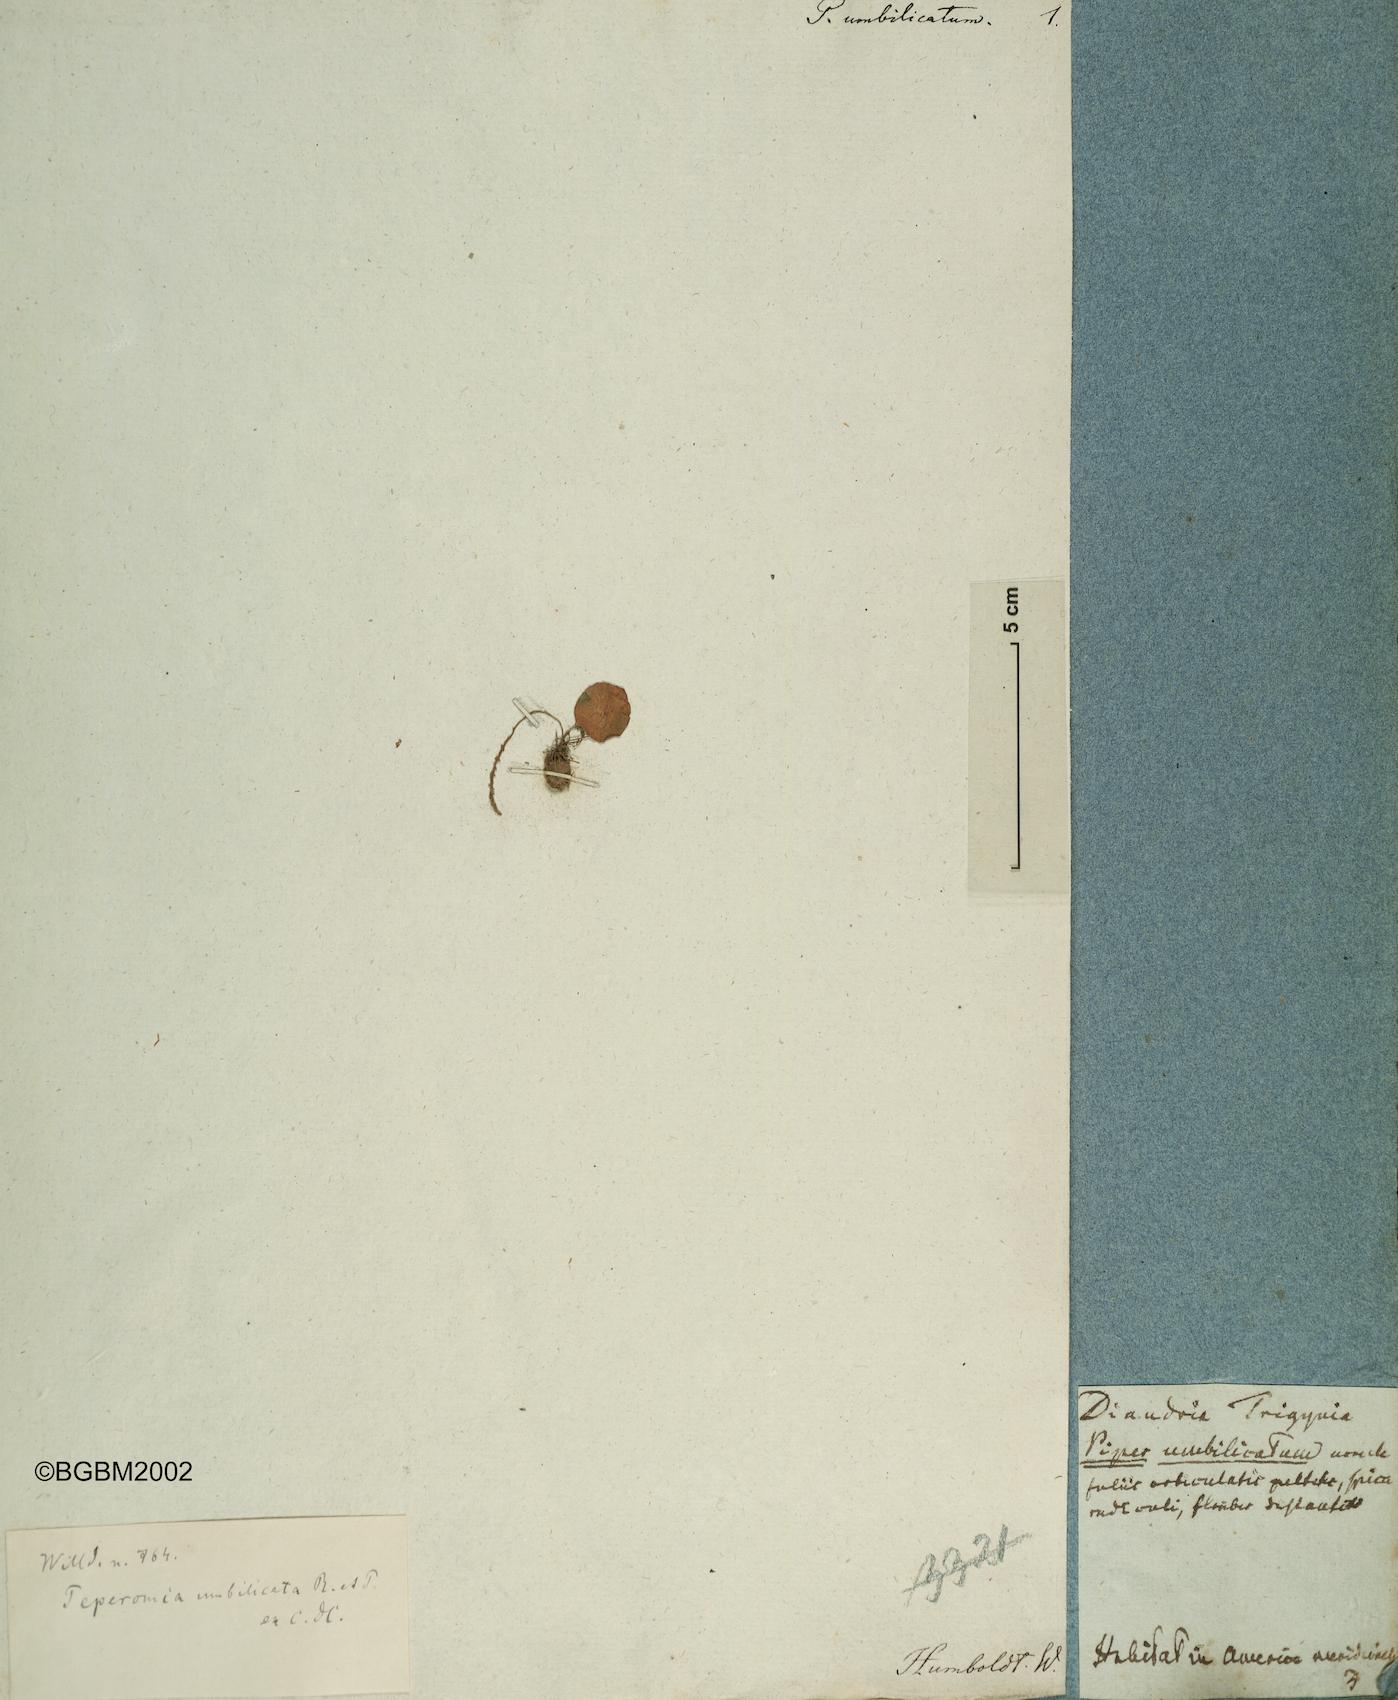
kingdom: Plantae
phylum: Tracheophyta
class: Magnoliopsida
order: Piperales
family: Piperaceae
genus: Peperomia
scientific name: Peperomia umbilicata
